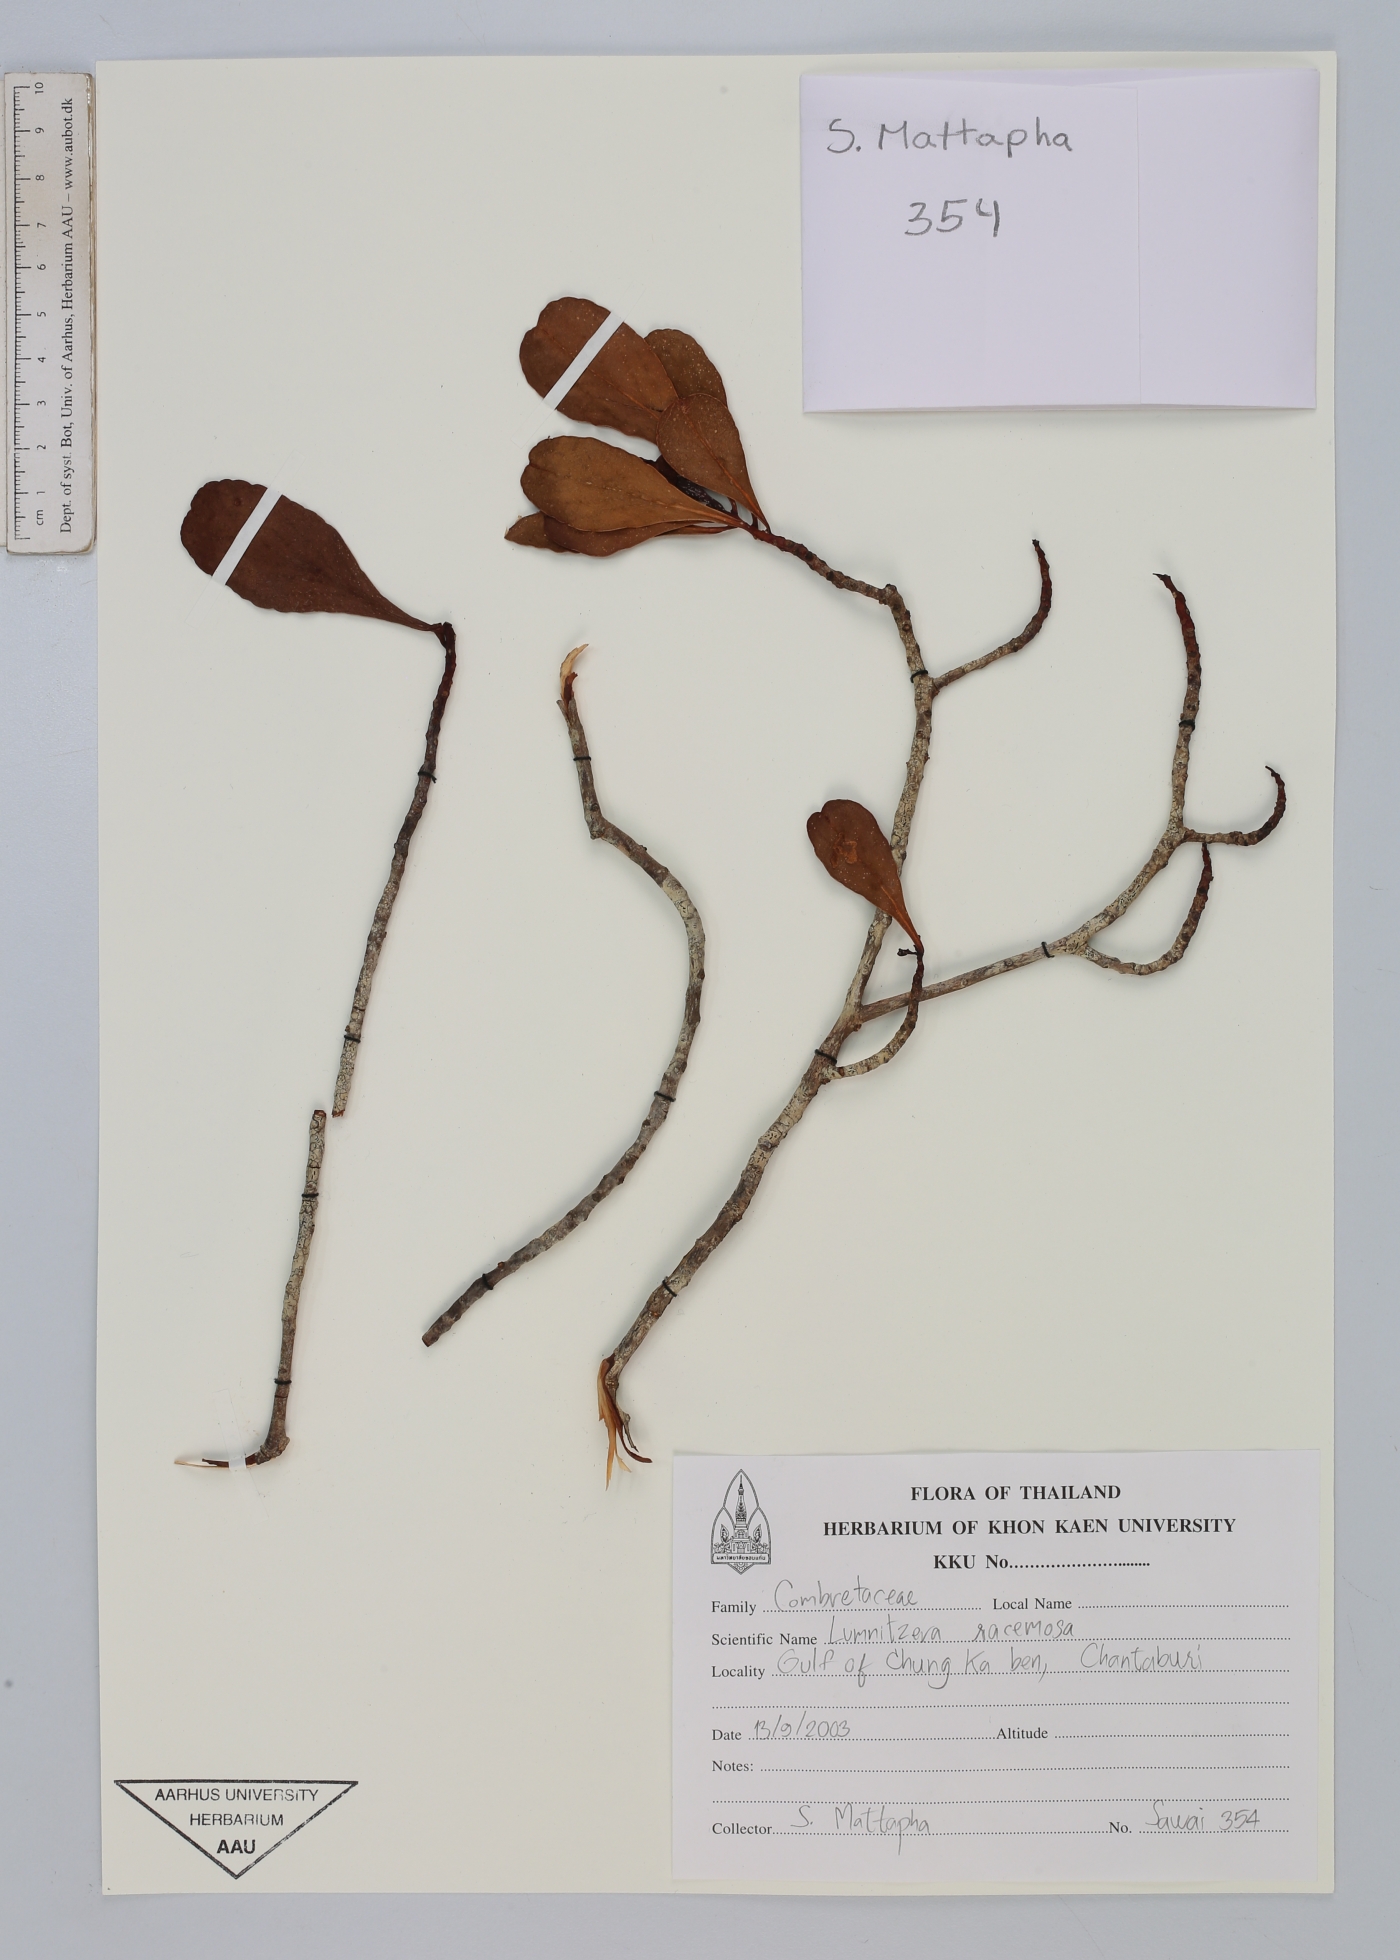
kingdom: Plantae
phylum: Tracheophyta
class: Magnoliopsida
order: Myrtales
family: Combretaceae
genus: Lumnitzera
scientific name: Lumnitzera racemosa
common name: White-flowered black mangrove
